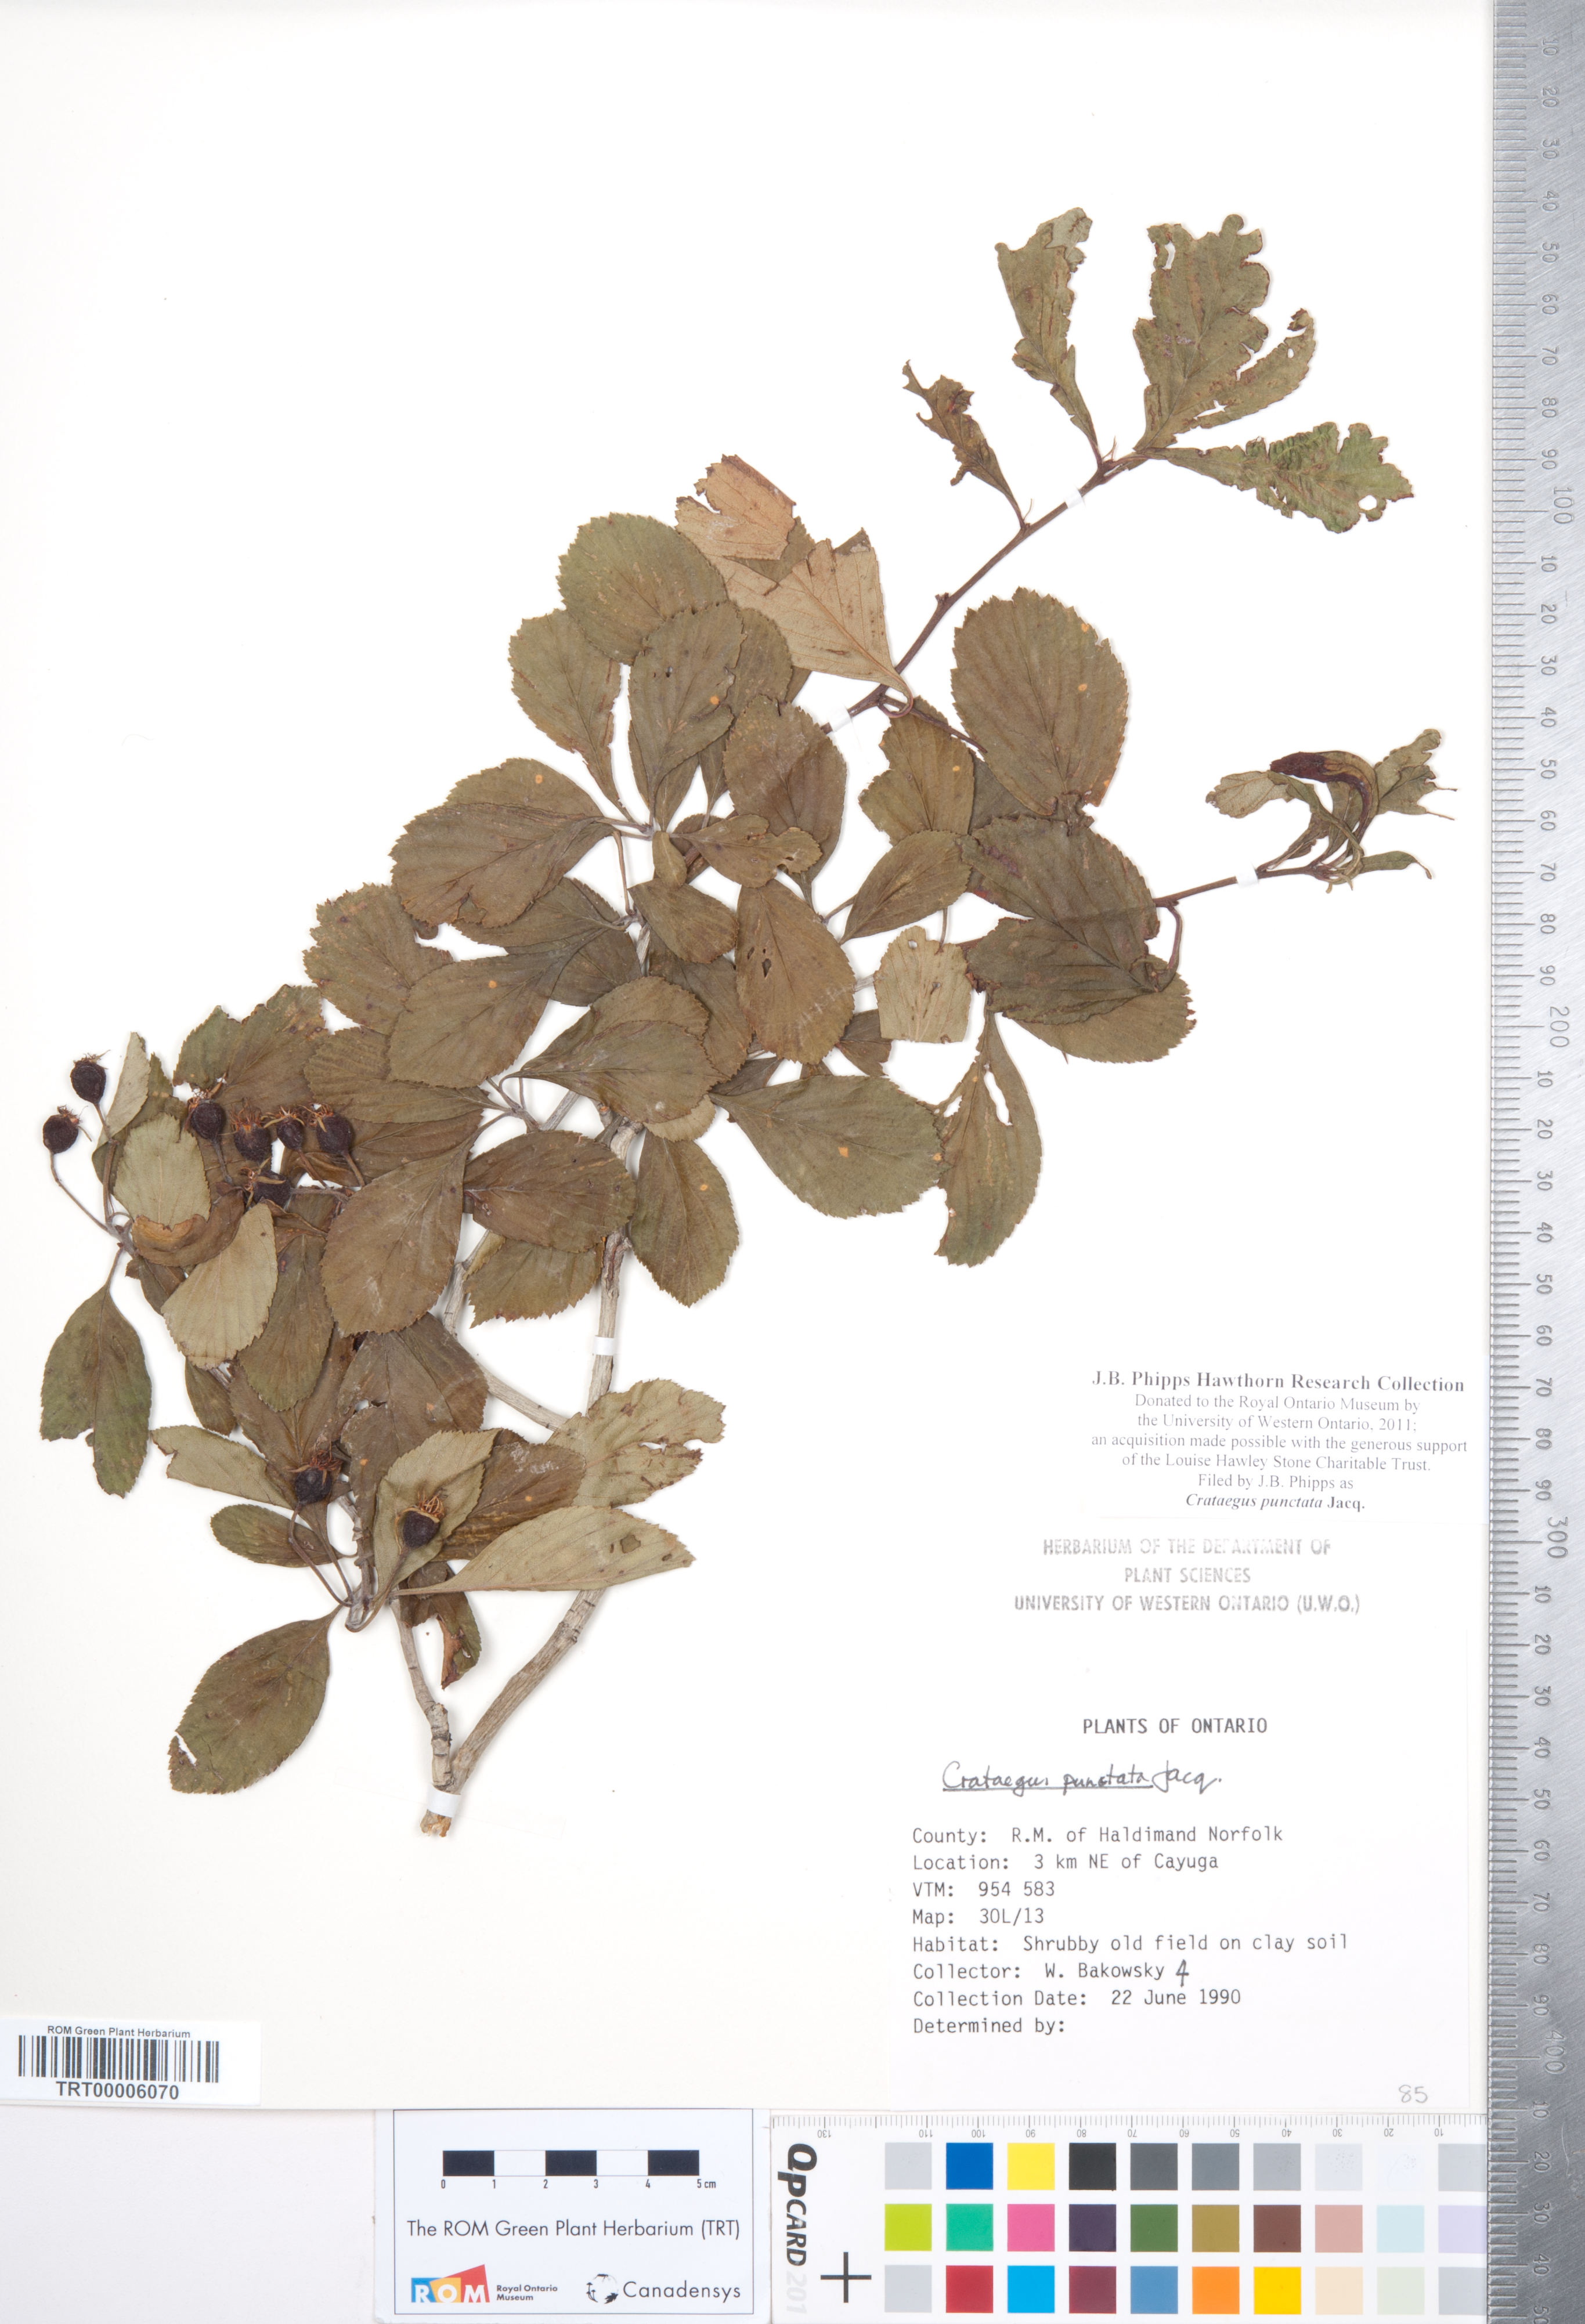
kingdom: Plantae
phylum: Tracheophyta
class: Magnoliopsida
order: Rosales
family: Rosaceae
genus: Crataegus
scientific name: Crataegus punctata
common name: Dotted hawthorn
